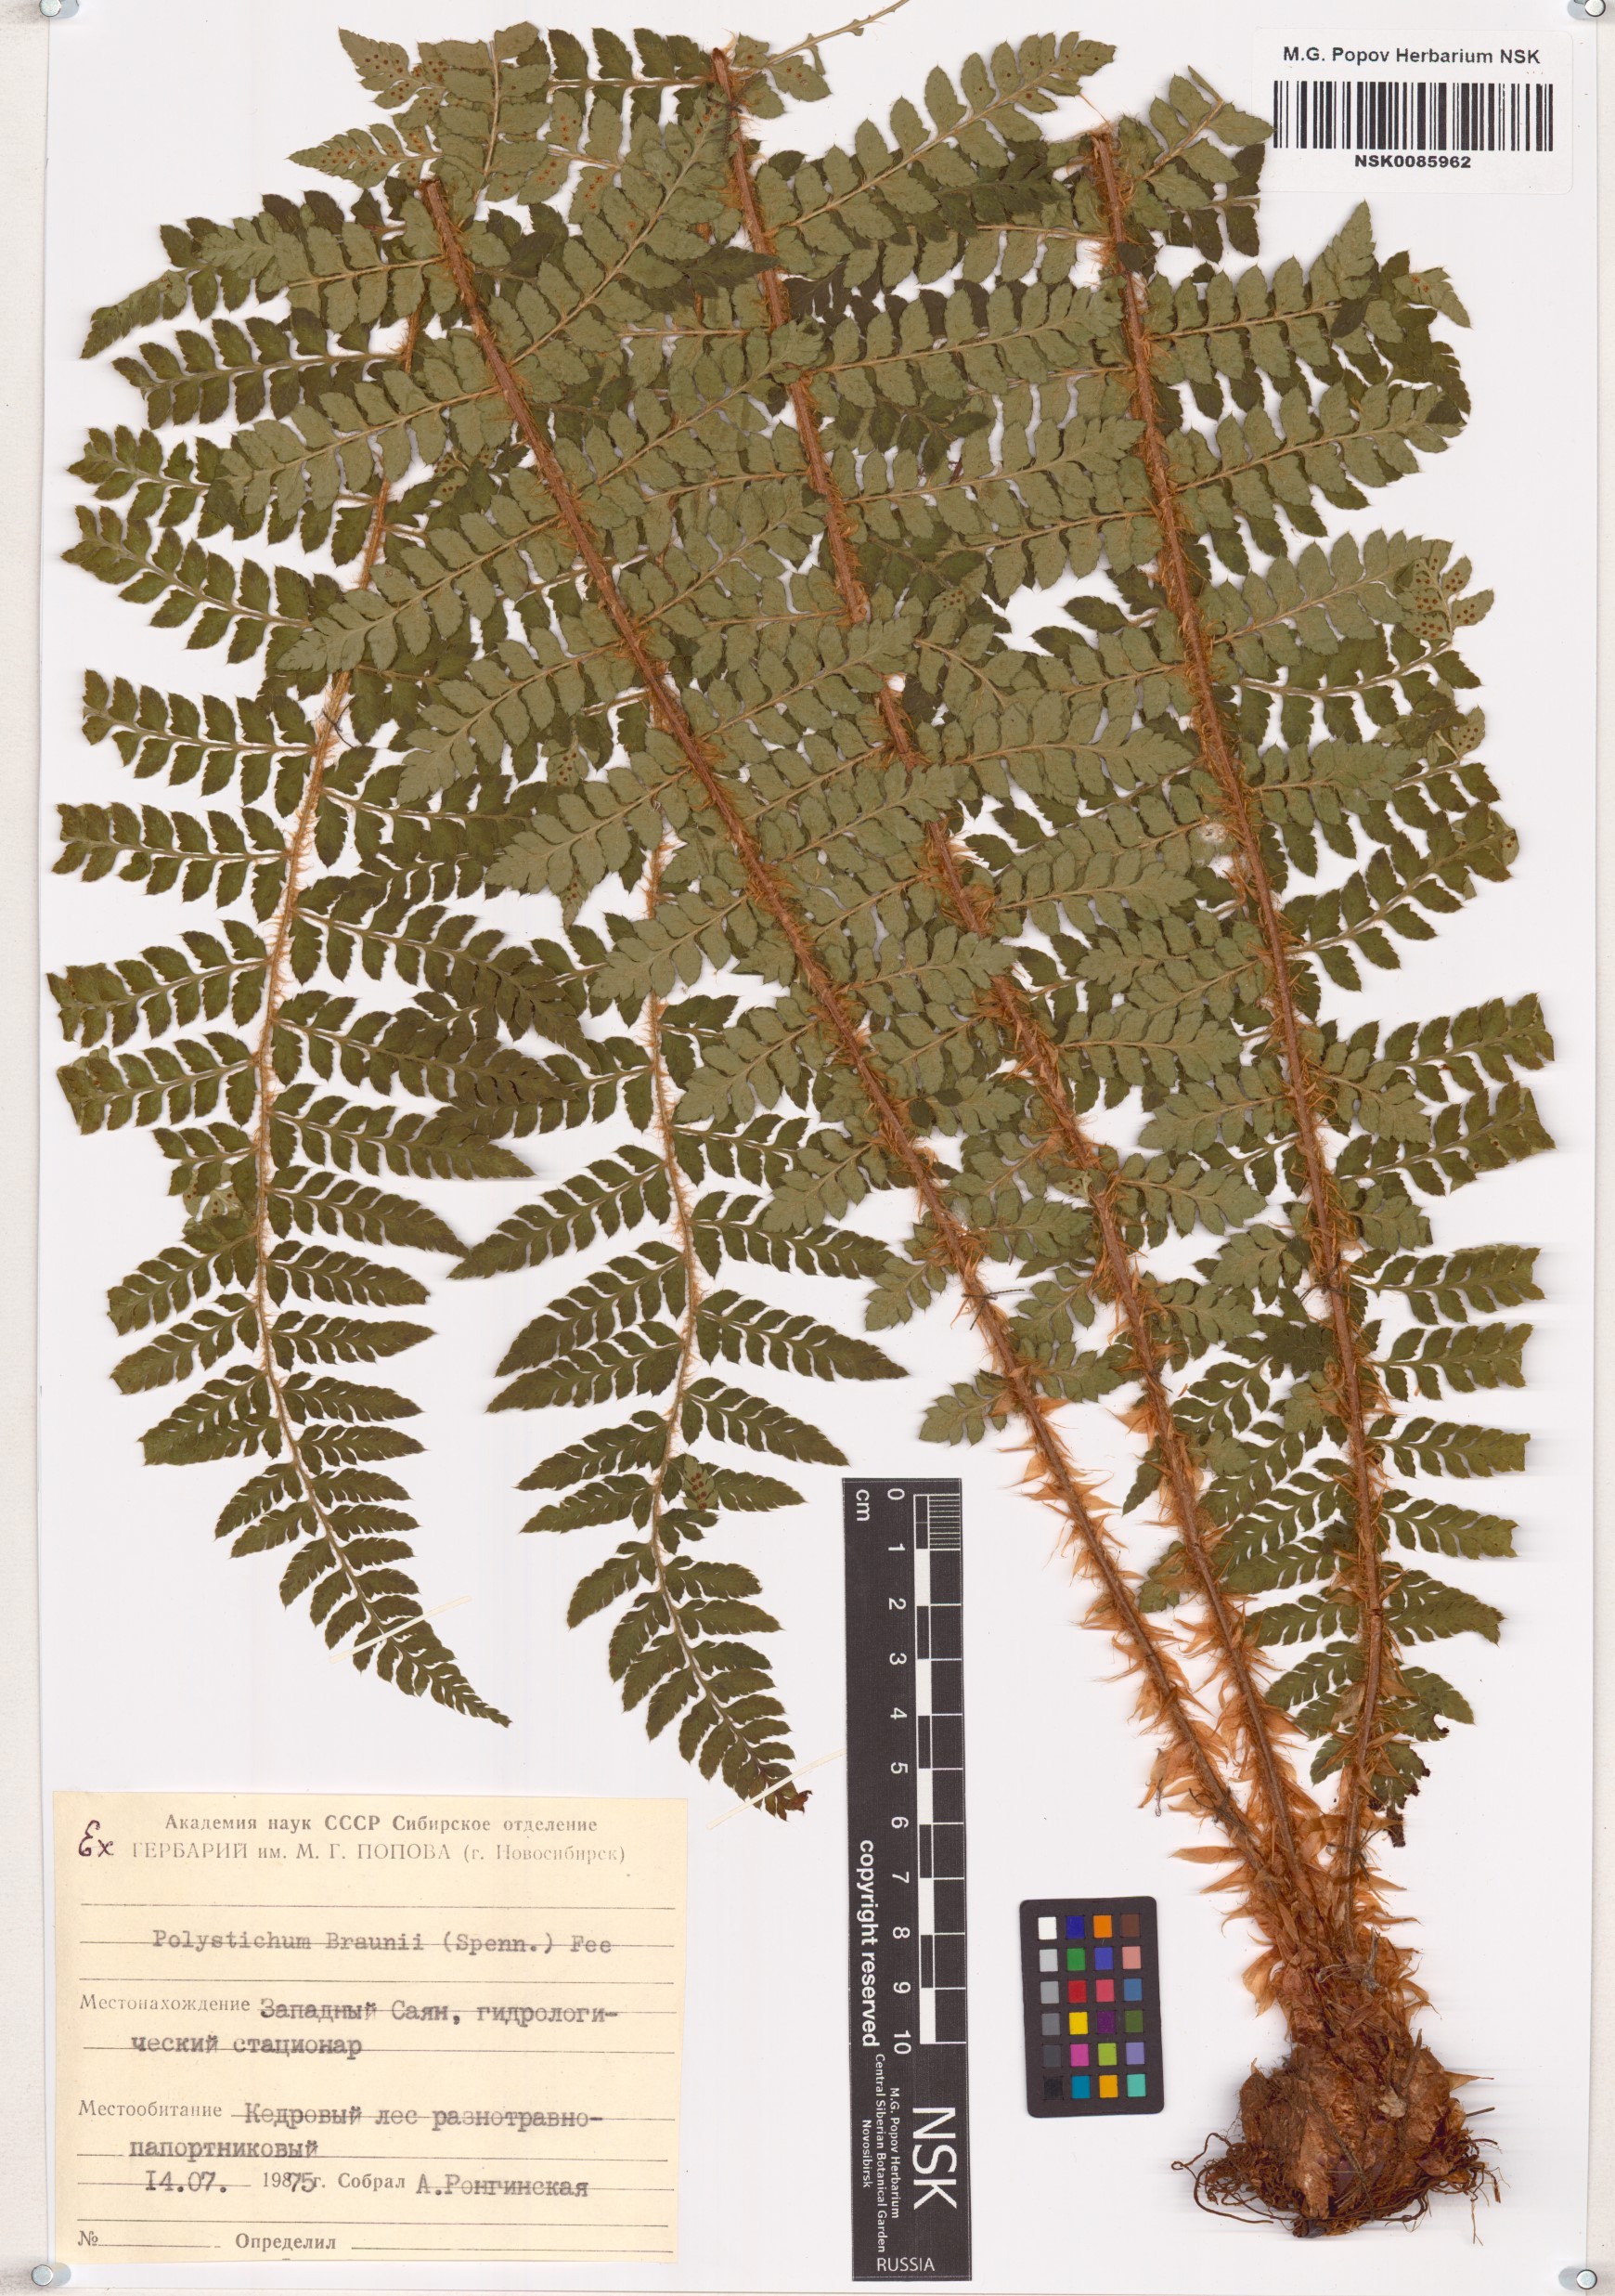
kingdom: Plantae
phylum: Tracheophyta
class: Polypodiopsida
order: Polypodiales
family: Dryopteridaceae
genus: Polystichum
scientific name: Polystichum braunii
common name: Braun's holly fern
